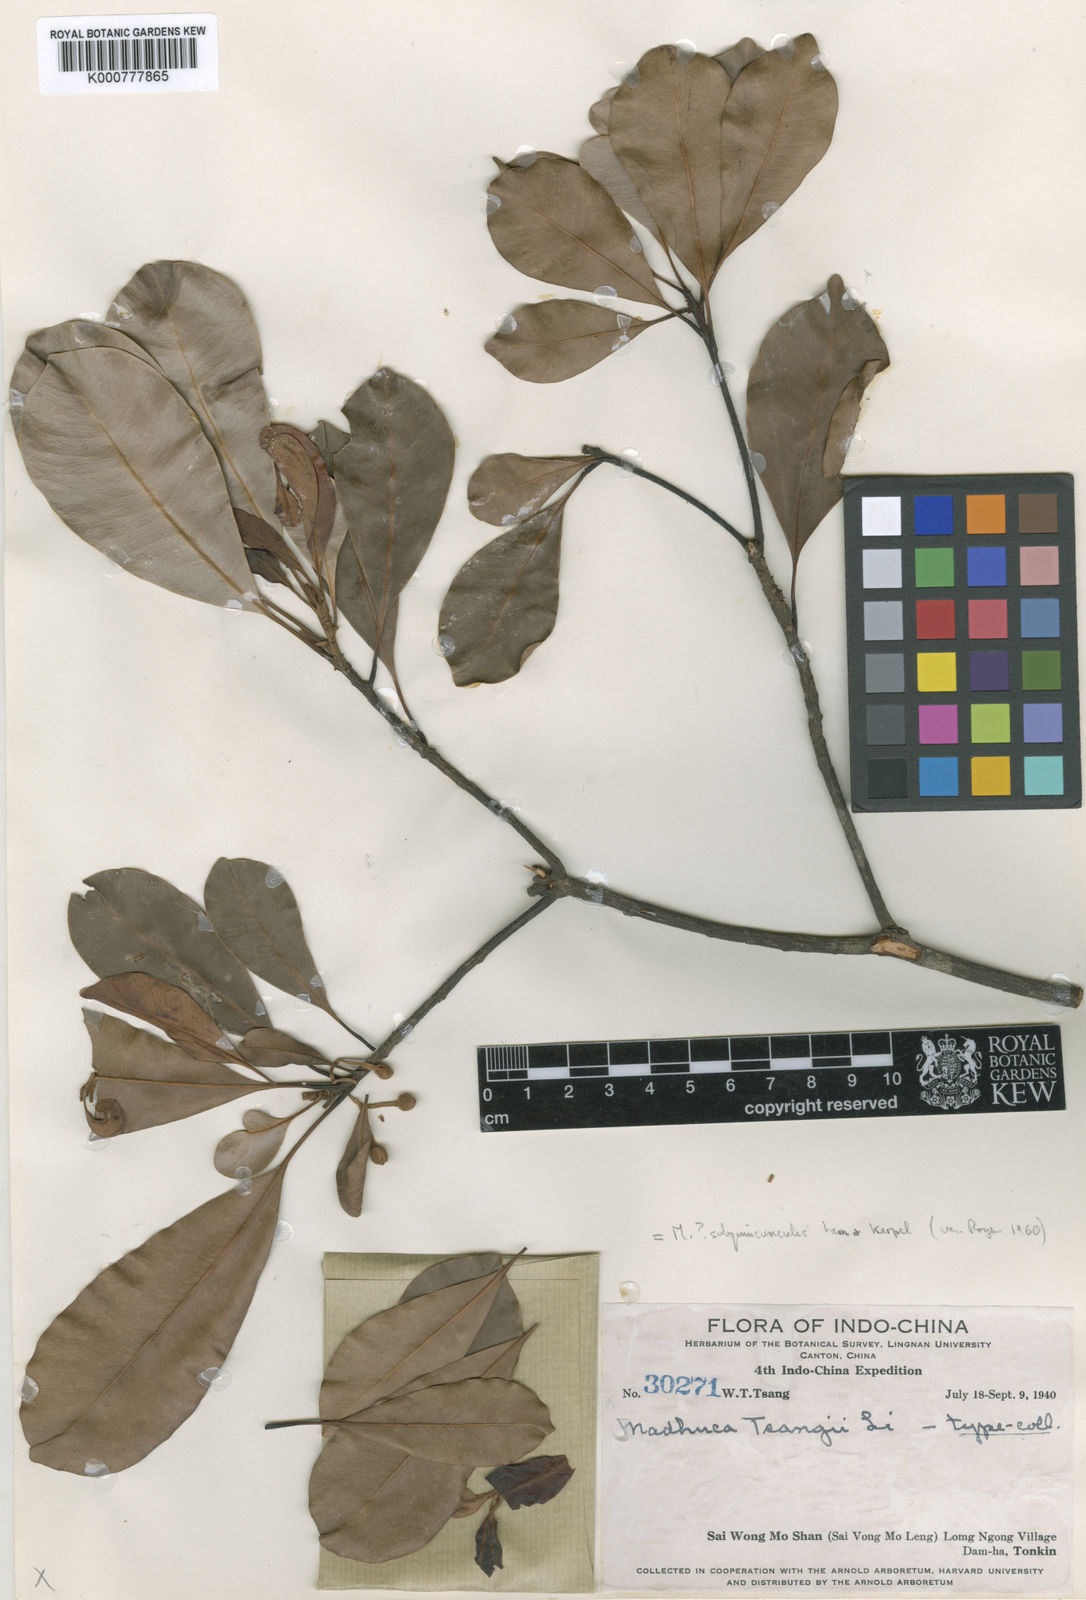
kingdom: Plantae
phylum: Tracheophyta
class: Magnoliopsida
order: Ericales
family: Sapotaceae
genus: Madhuca
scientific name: Madhuca pasquieri
